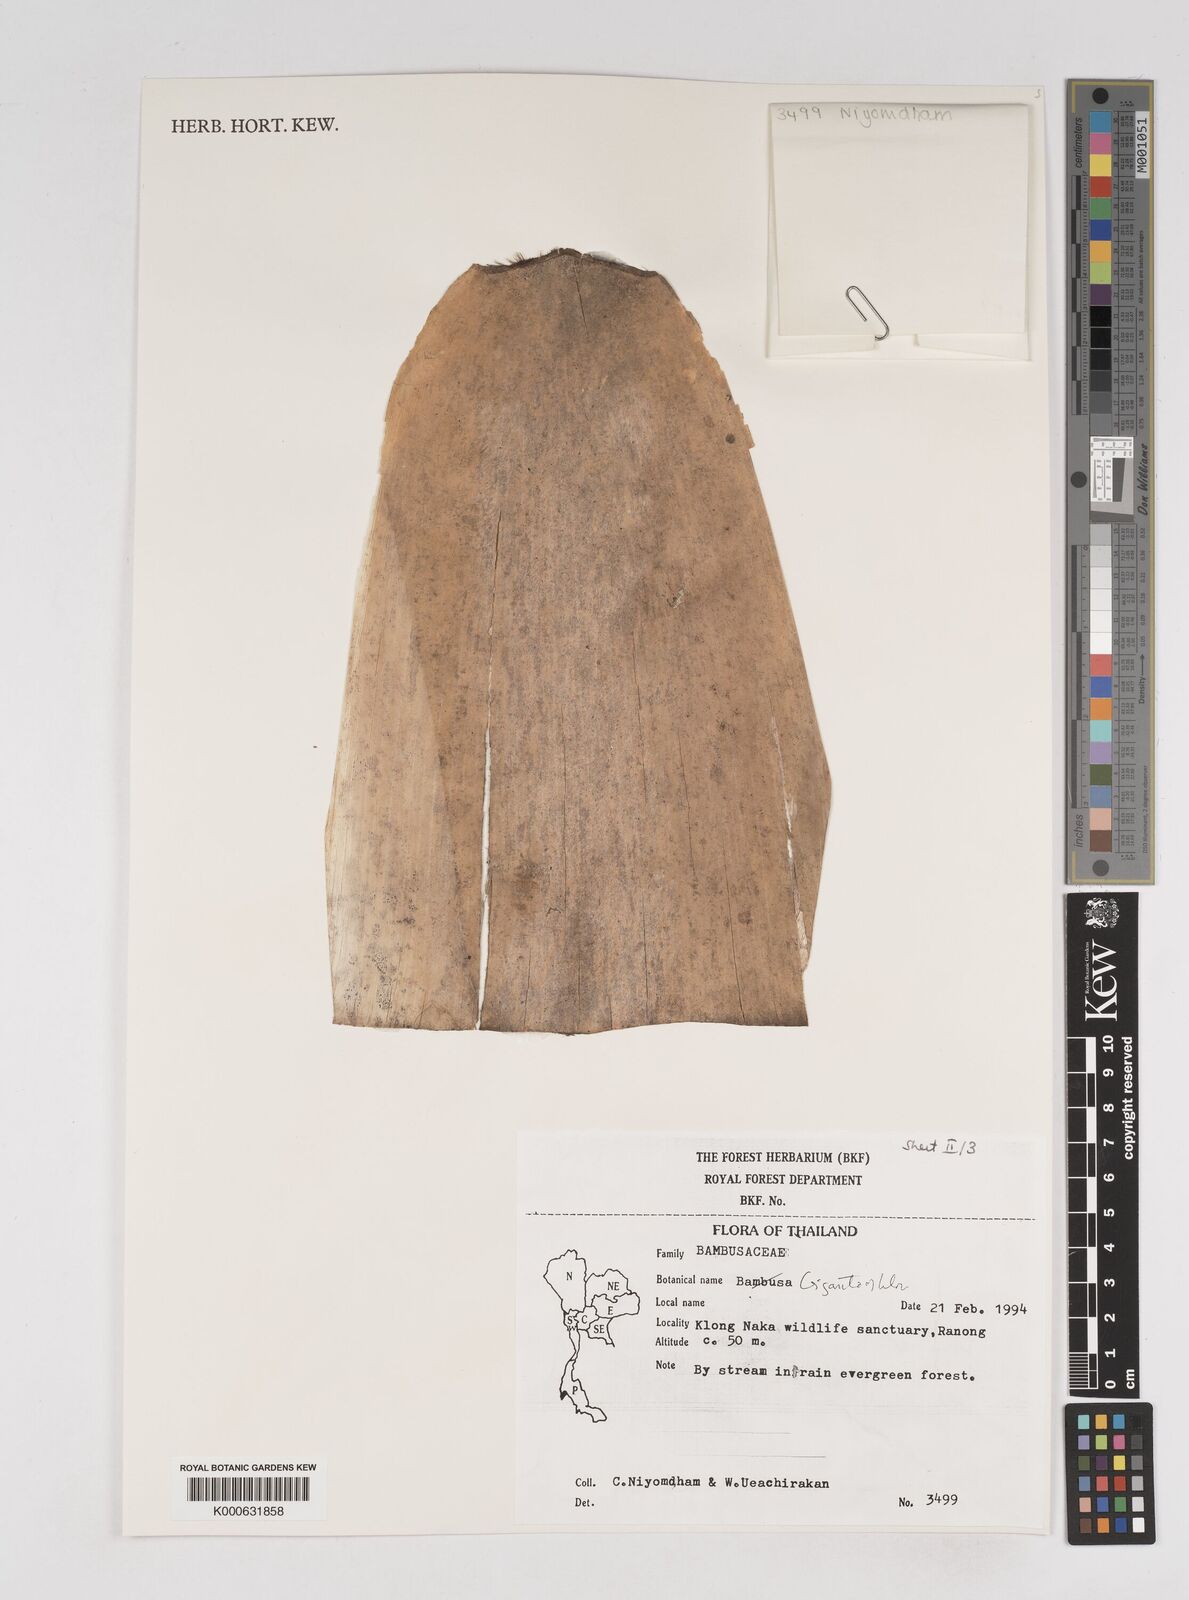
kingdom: Plantae
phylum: Tracheophyta
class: Liliopsida
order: Poales
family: Poaceae
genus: Gigantochloa
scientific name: Gigantochloa
